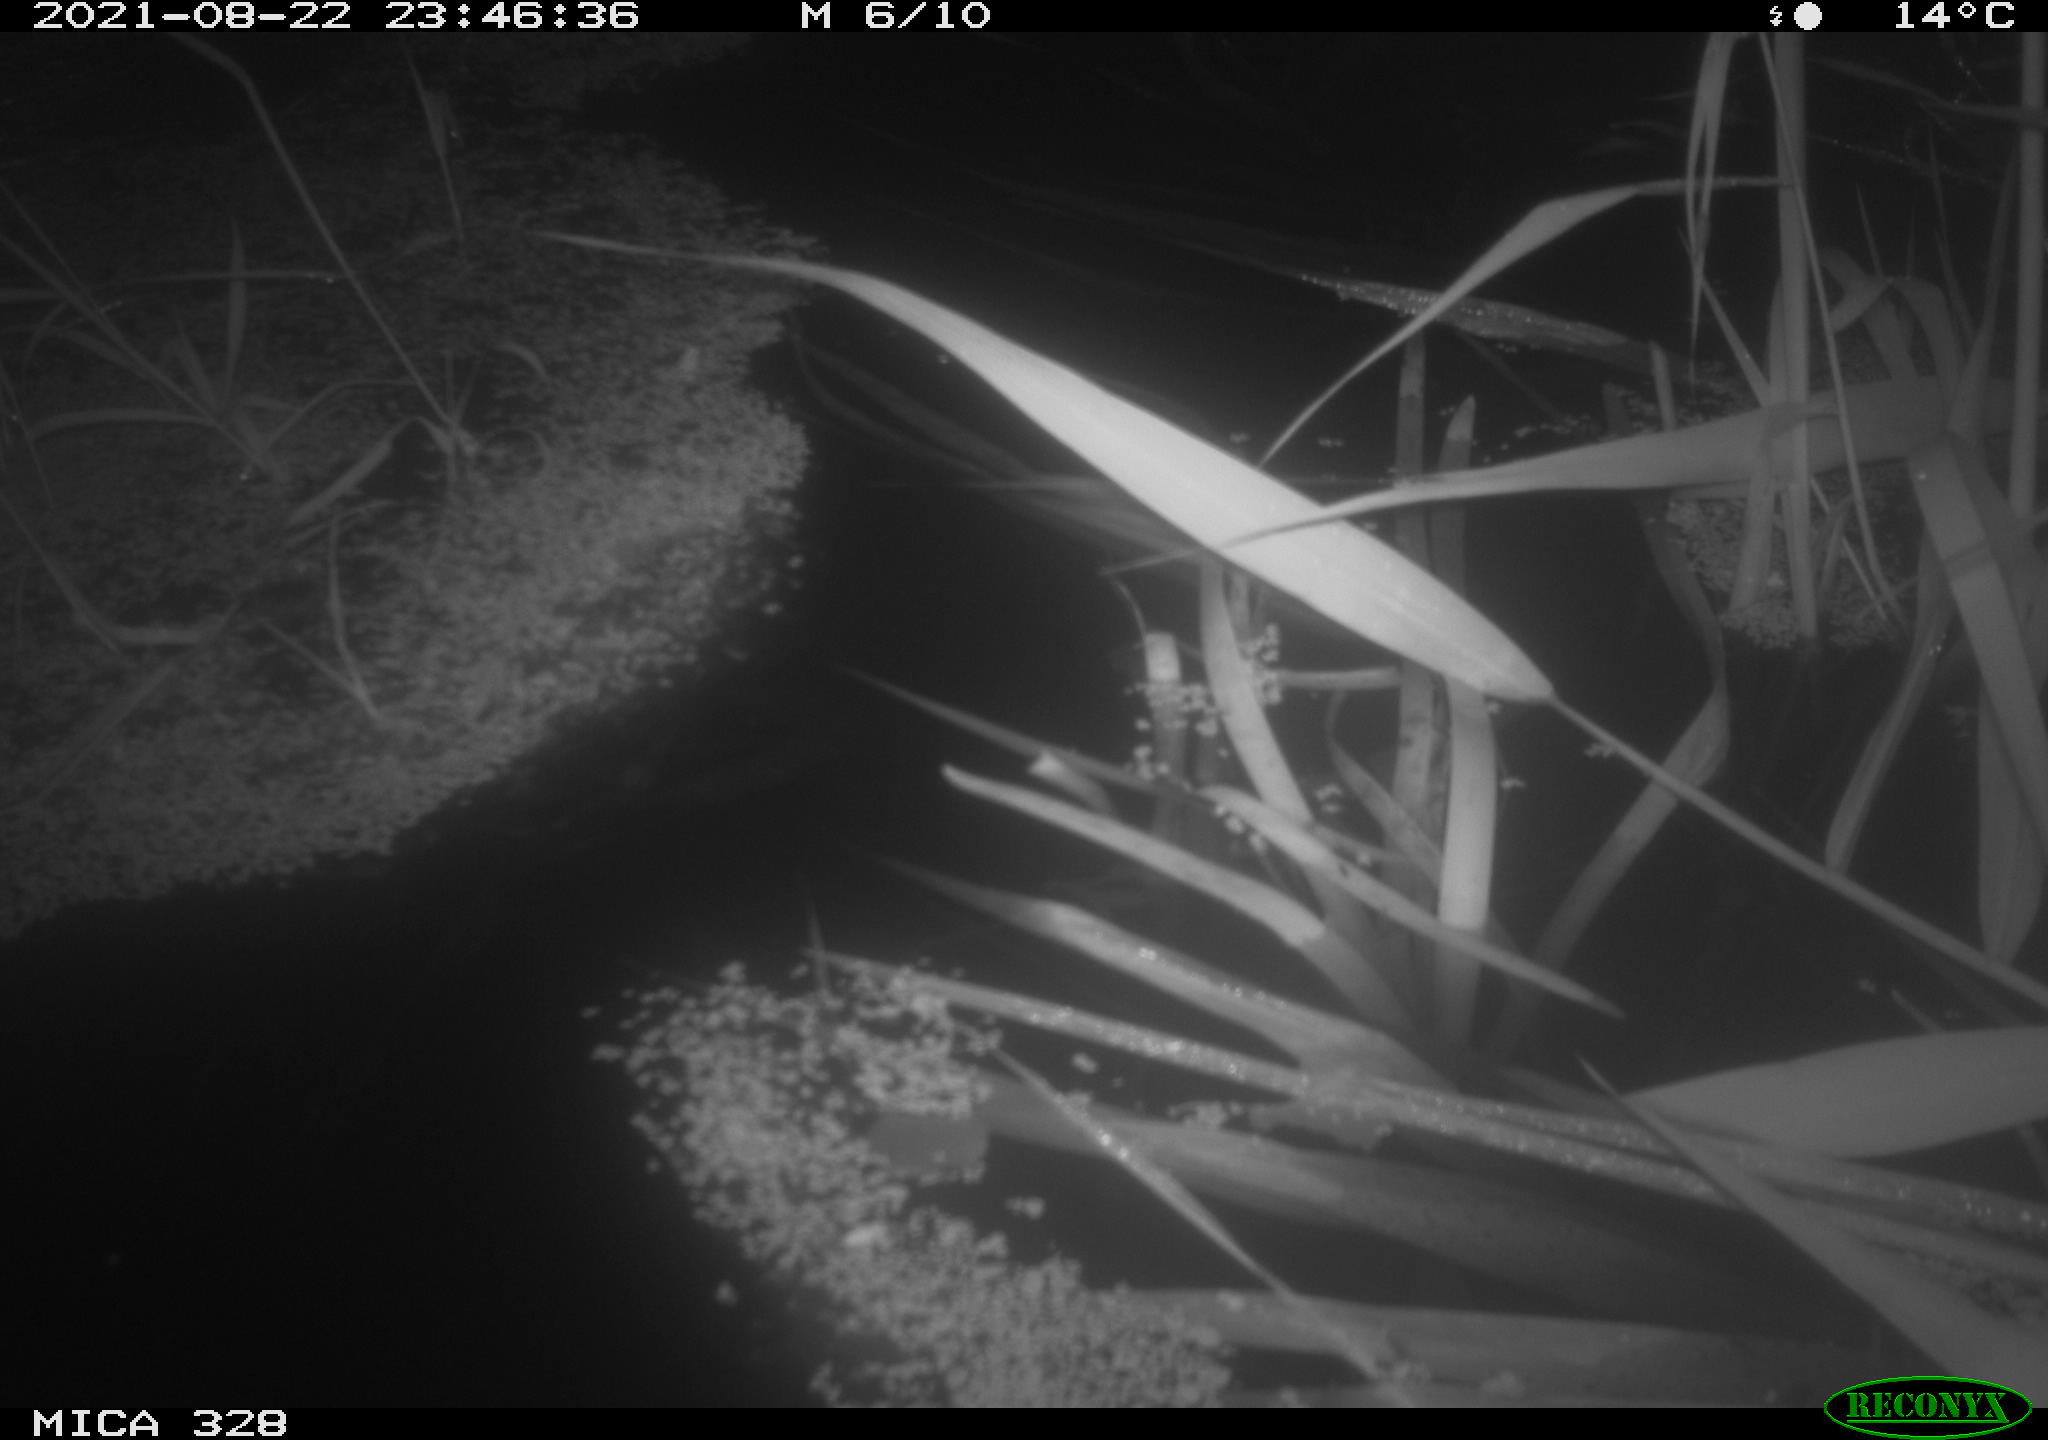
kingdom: Animalia
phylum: Chordata
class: Mammalia
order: Rodentia
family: Cricetidae
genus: Ondatra
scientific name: Ondatra zibethicus
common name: Muskrat
